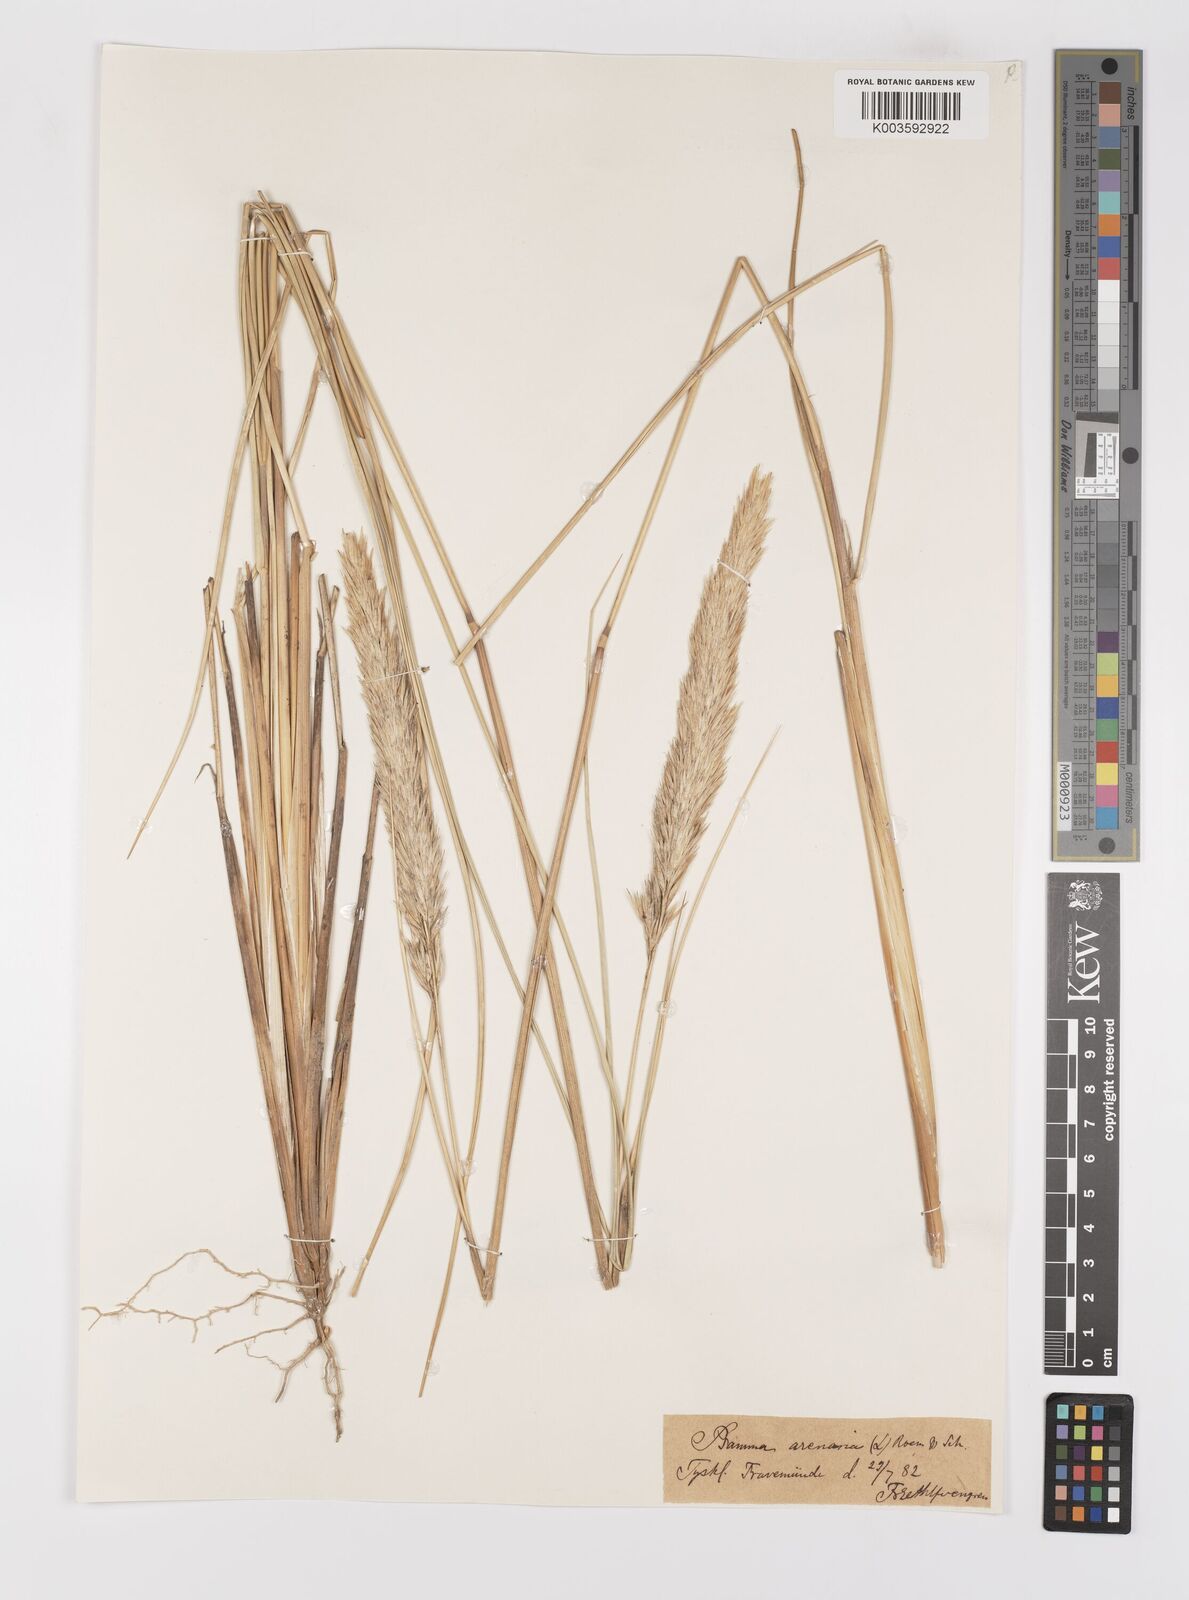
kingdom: Plantae
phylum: Tracheophyta
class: Liliopsida
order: Poales
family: Poaceae
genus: Calamagrostis
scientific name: Calamagrostis arenaria
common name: European beachgrass
